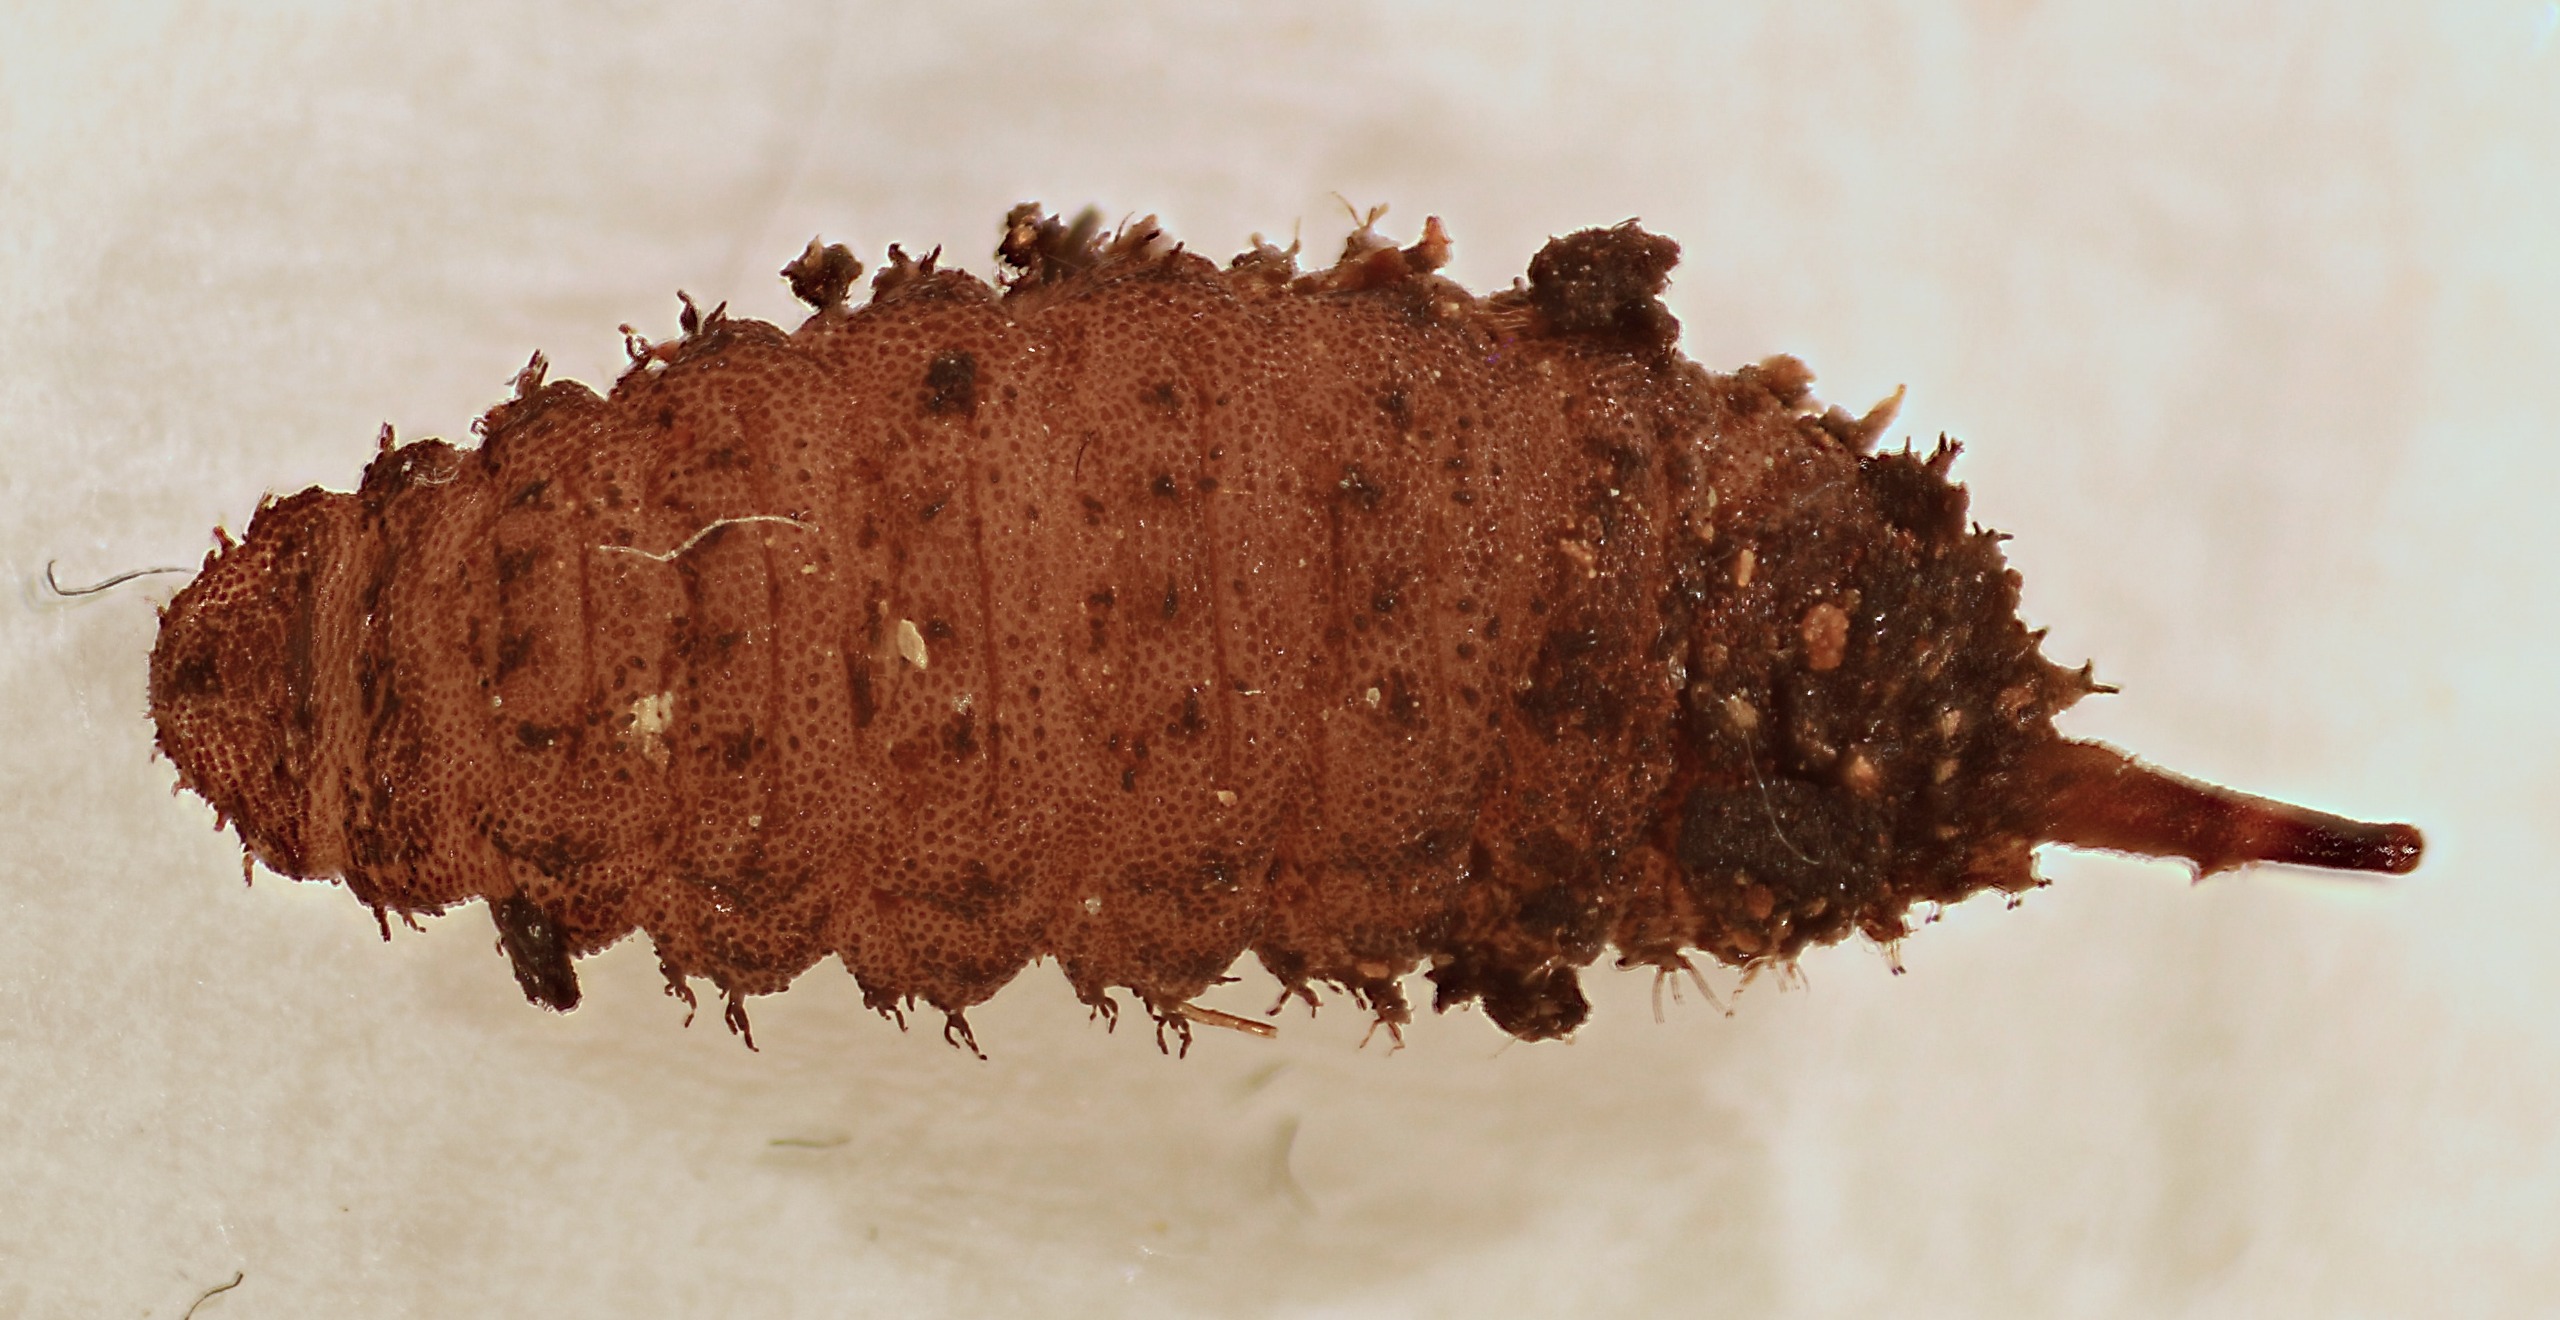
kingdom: Animalia
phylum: Arthropoda
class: Insecta
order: Diptera
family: Syrphidae
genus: Brachyopa
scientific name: Brachyopa insensilis
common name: Elme-træsaftsvirreflue
